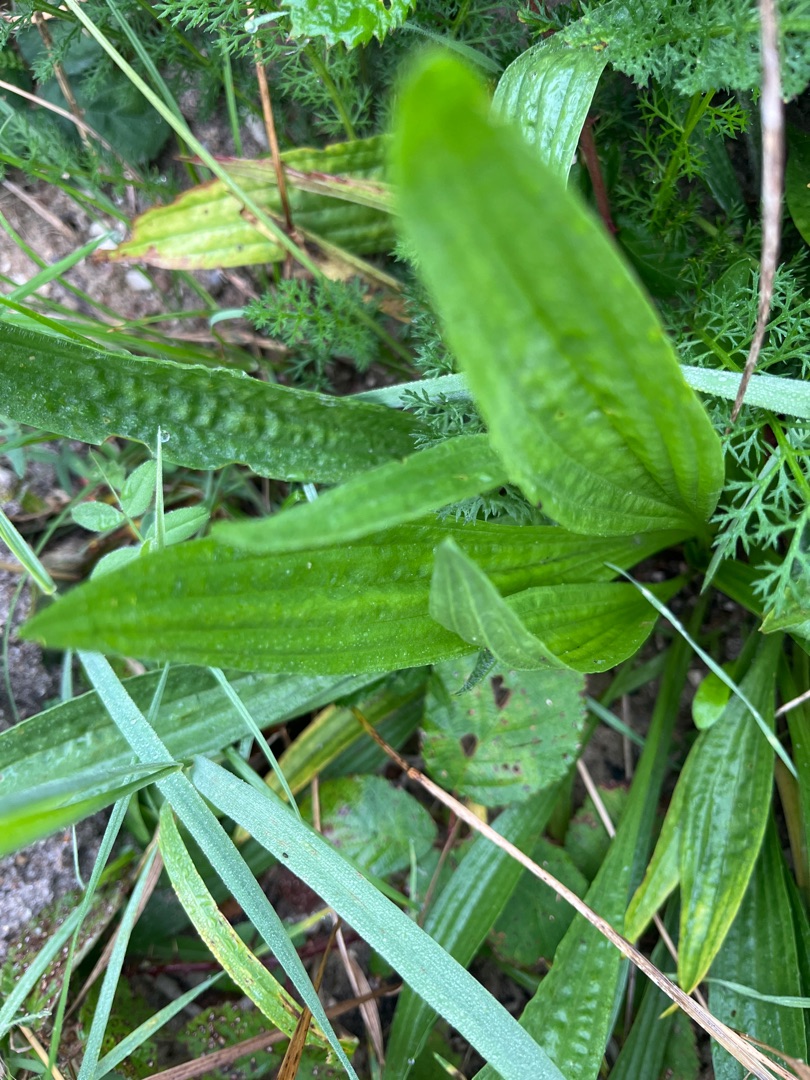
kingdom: Plantae
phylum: Tracheophyta
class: Magnoliopsida
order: Lamiales
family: Plantaginaceae
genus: Plantago
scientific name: Plantago lanceolata
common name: Lancet-vejbred
